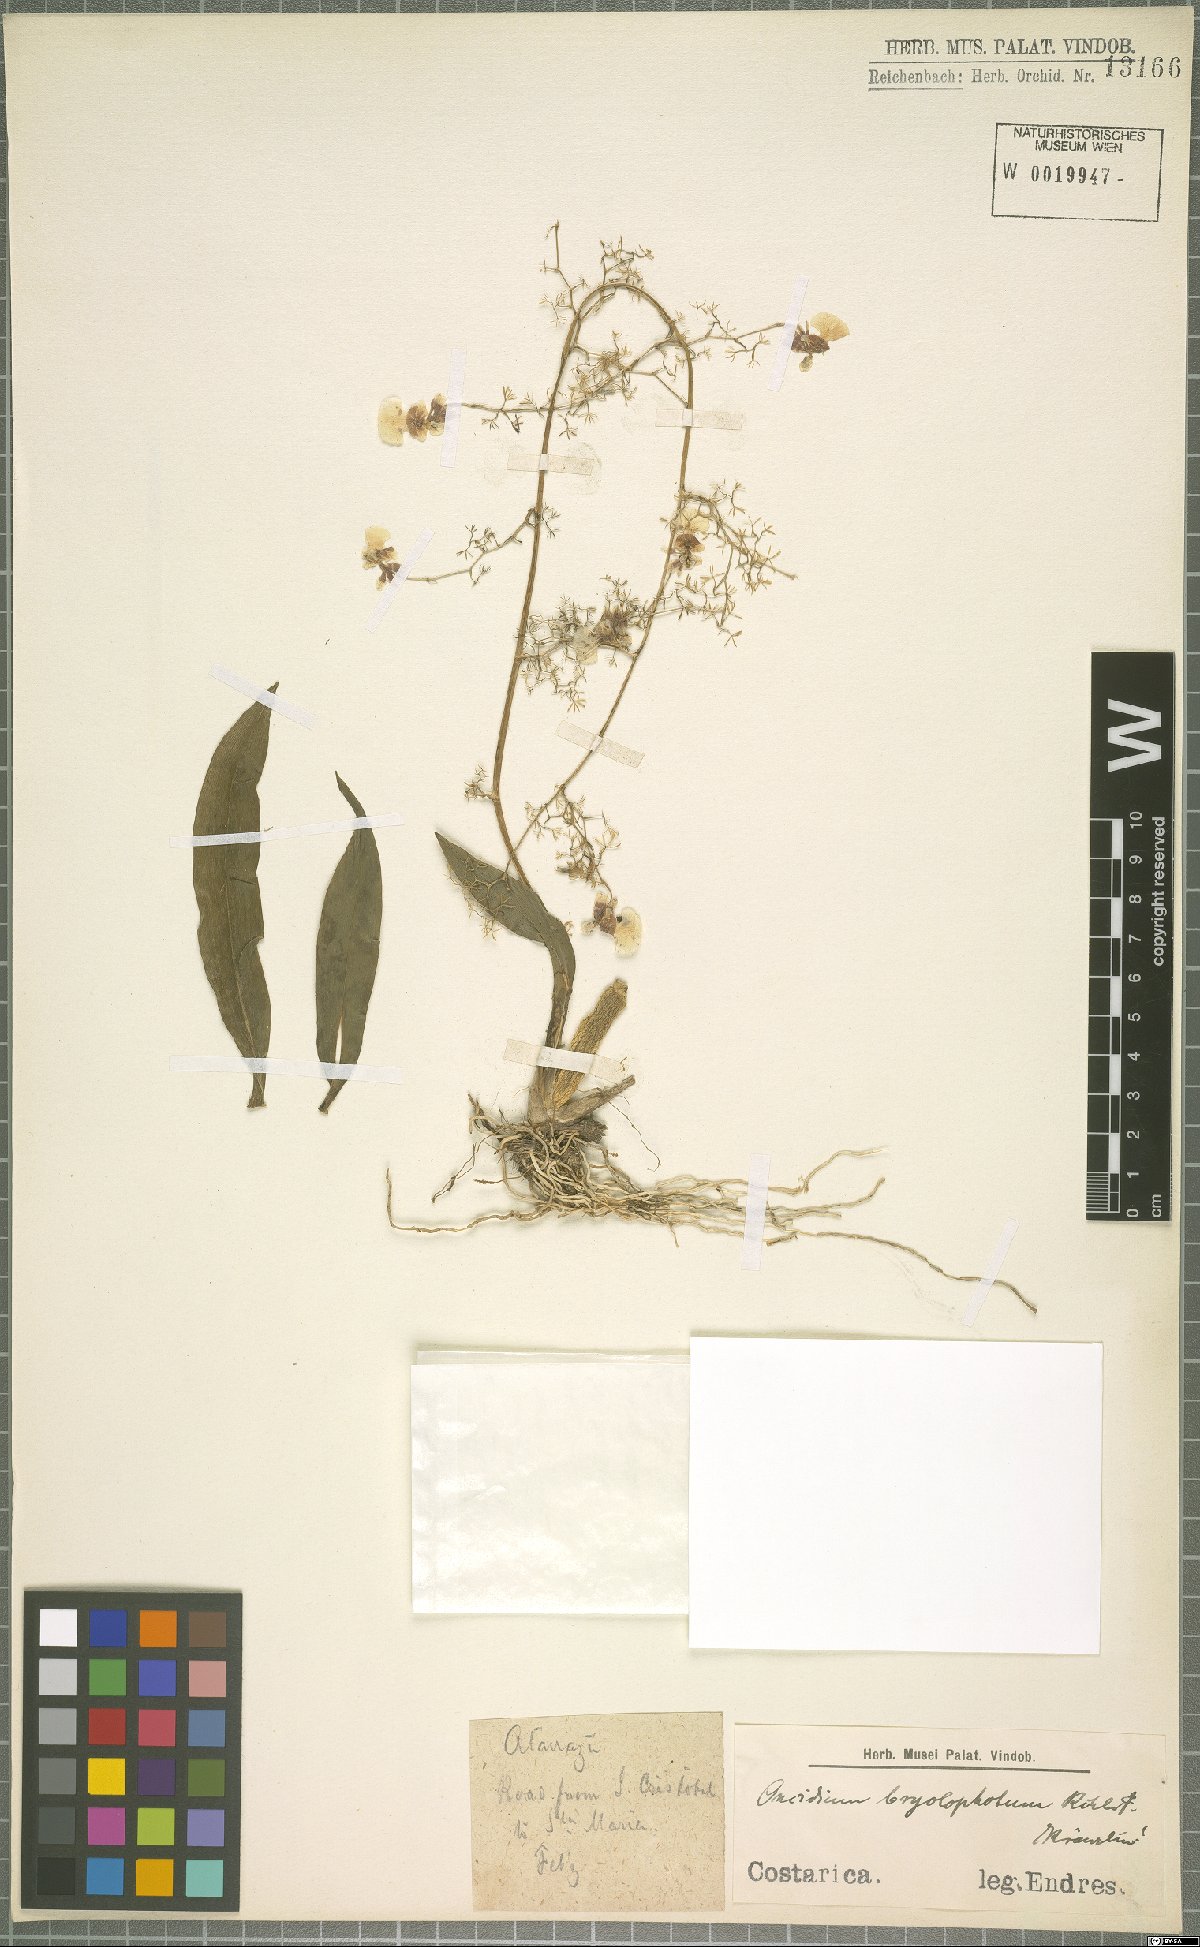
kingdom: Plantae
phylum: Tracheophyta
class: Liliopsida
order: Asparagales
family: Orchidaceae
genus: Oncidium
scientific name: Oncidium bryolophotum
